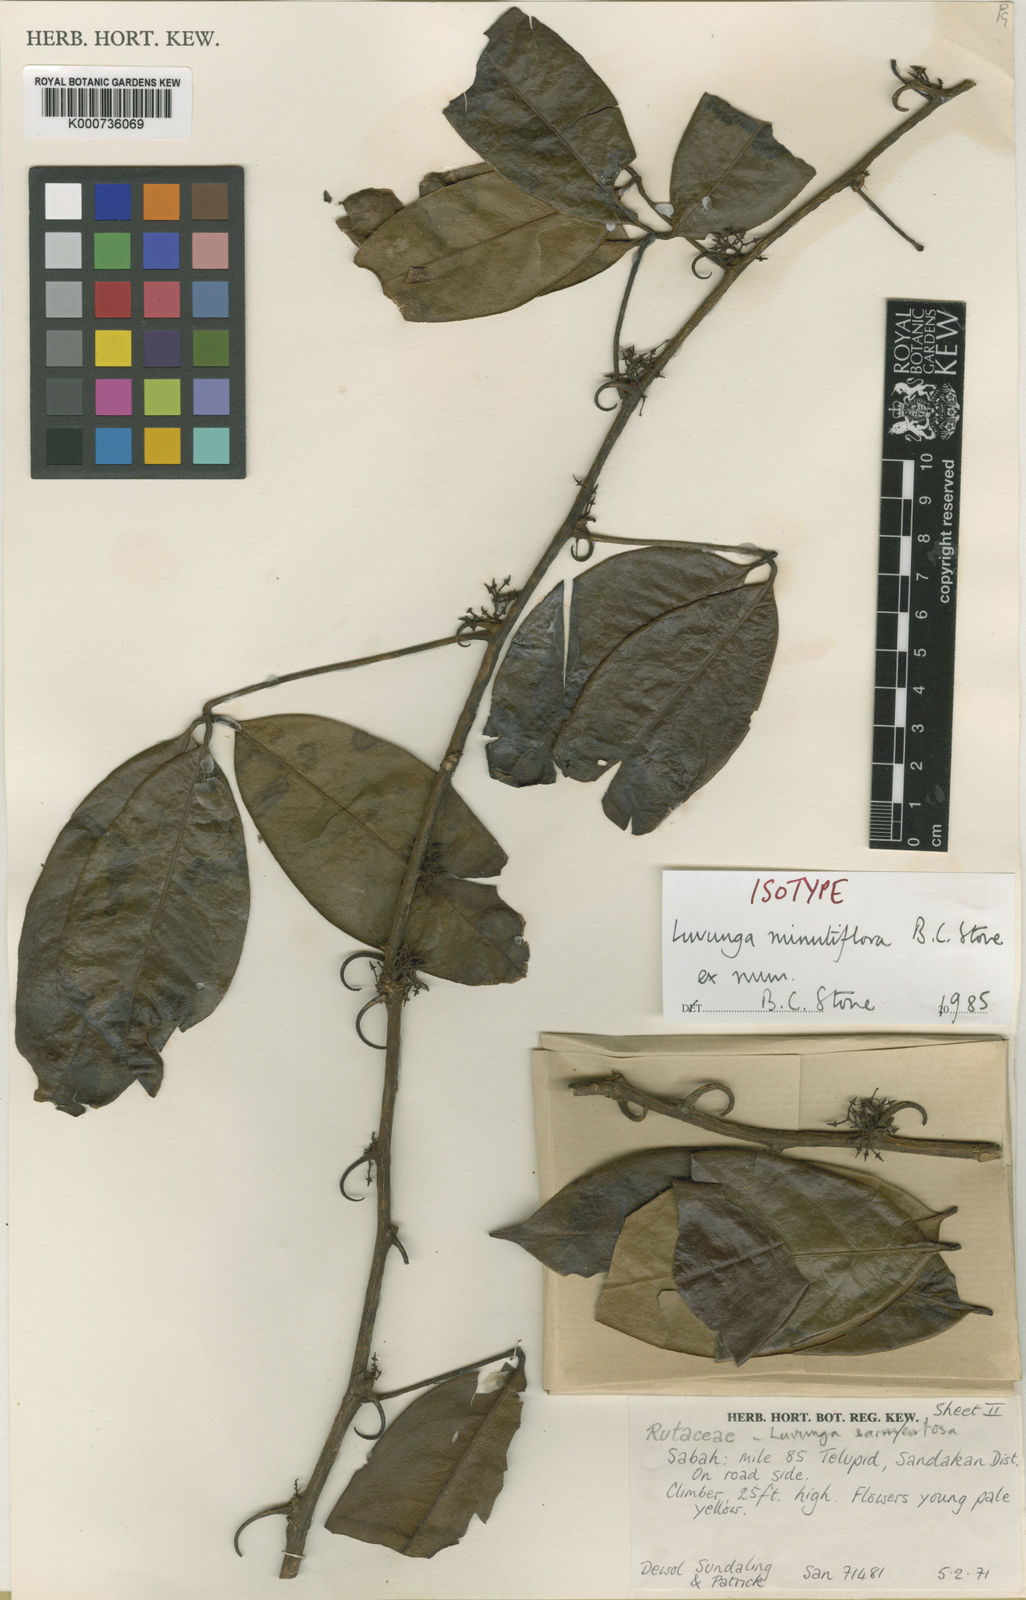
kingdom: Plantae
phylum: Tracheophyta
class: Magnoliopsida
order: Sapindales
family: Rutaceae
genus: Luvunga
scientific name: Luvunga minutiflora
